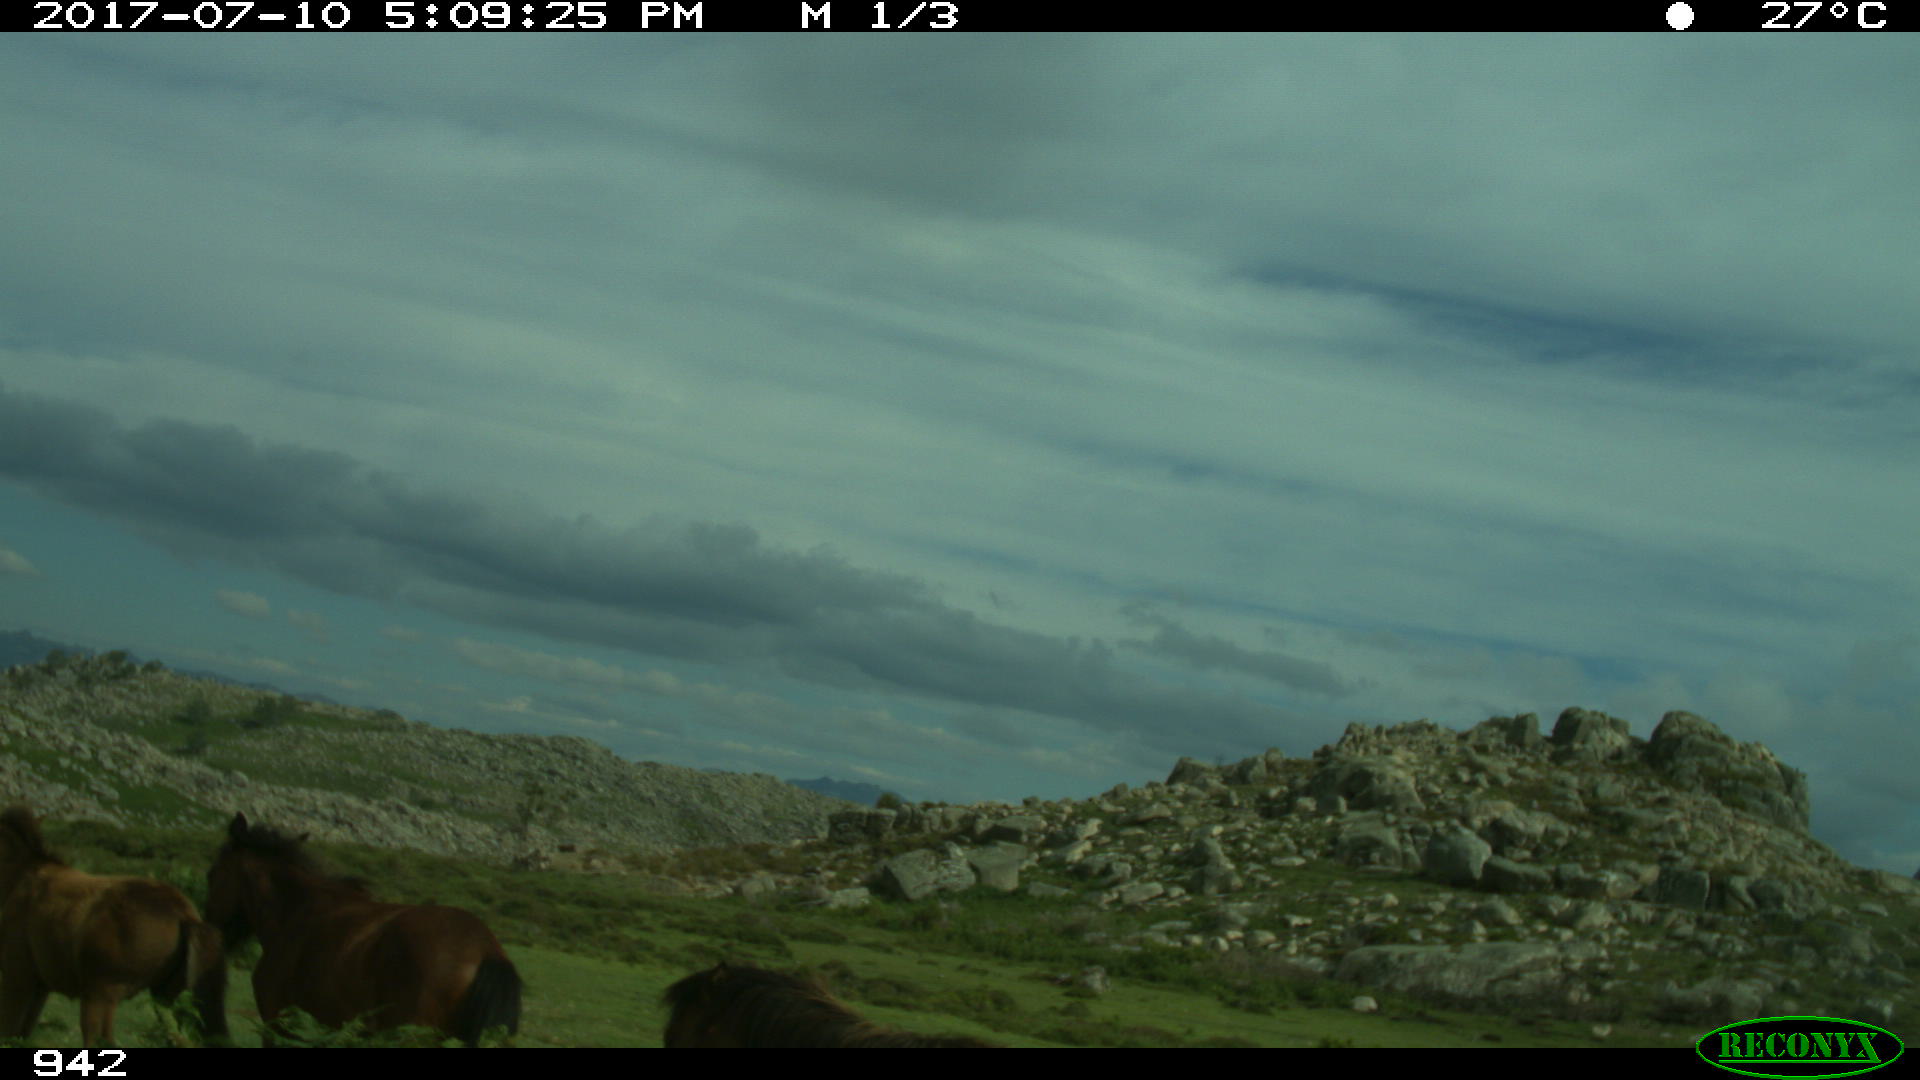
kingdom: Animalia
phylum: Chordata
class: Mammalia
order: Perissodactyla
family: Equidae
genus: Equus
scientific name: Equus caballus
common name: Horse
